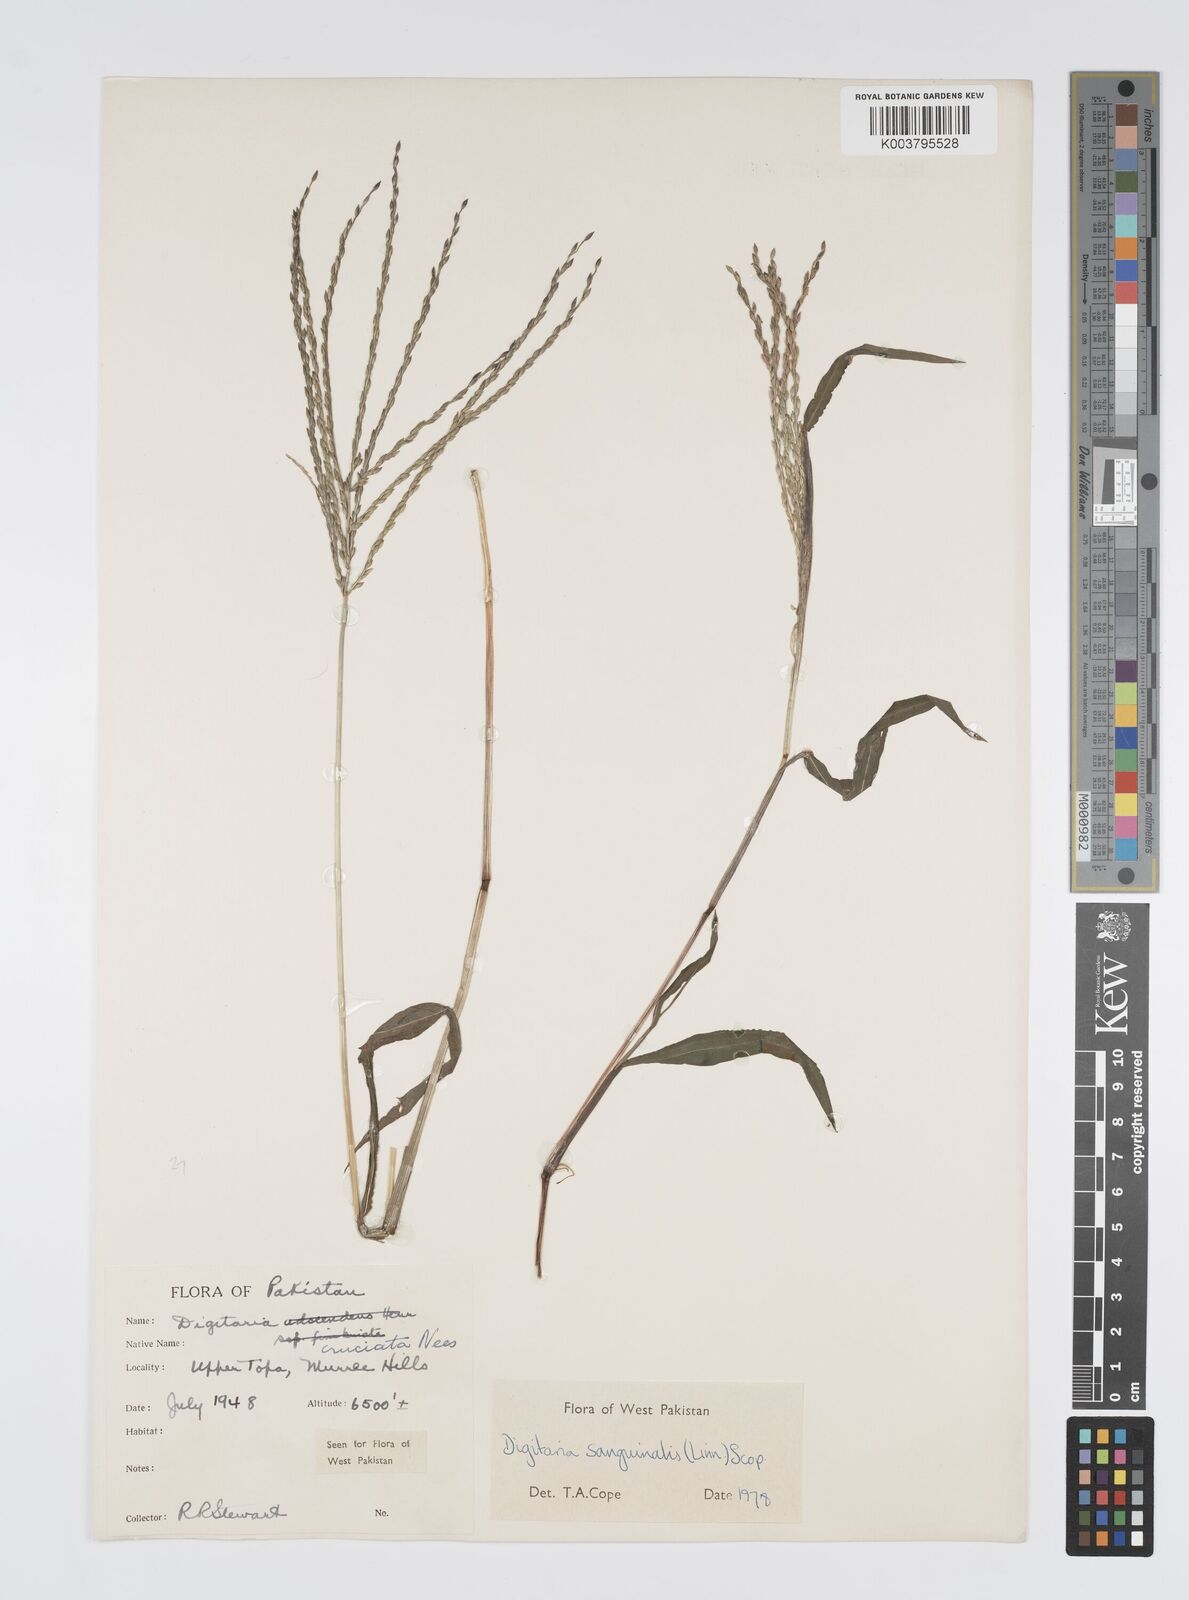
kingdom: Plantae
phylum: Tracheophyta
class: Liliopsida
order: Poales
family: Poaceae
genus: Digitaria
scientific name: Digitaria sanguinalis
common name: Hairy crabgrass
